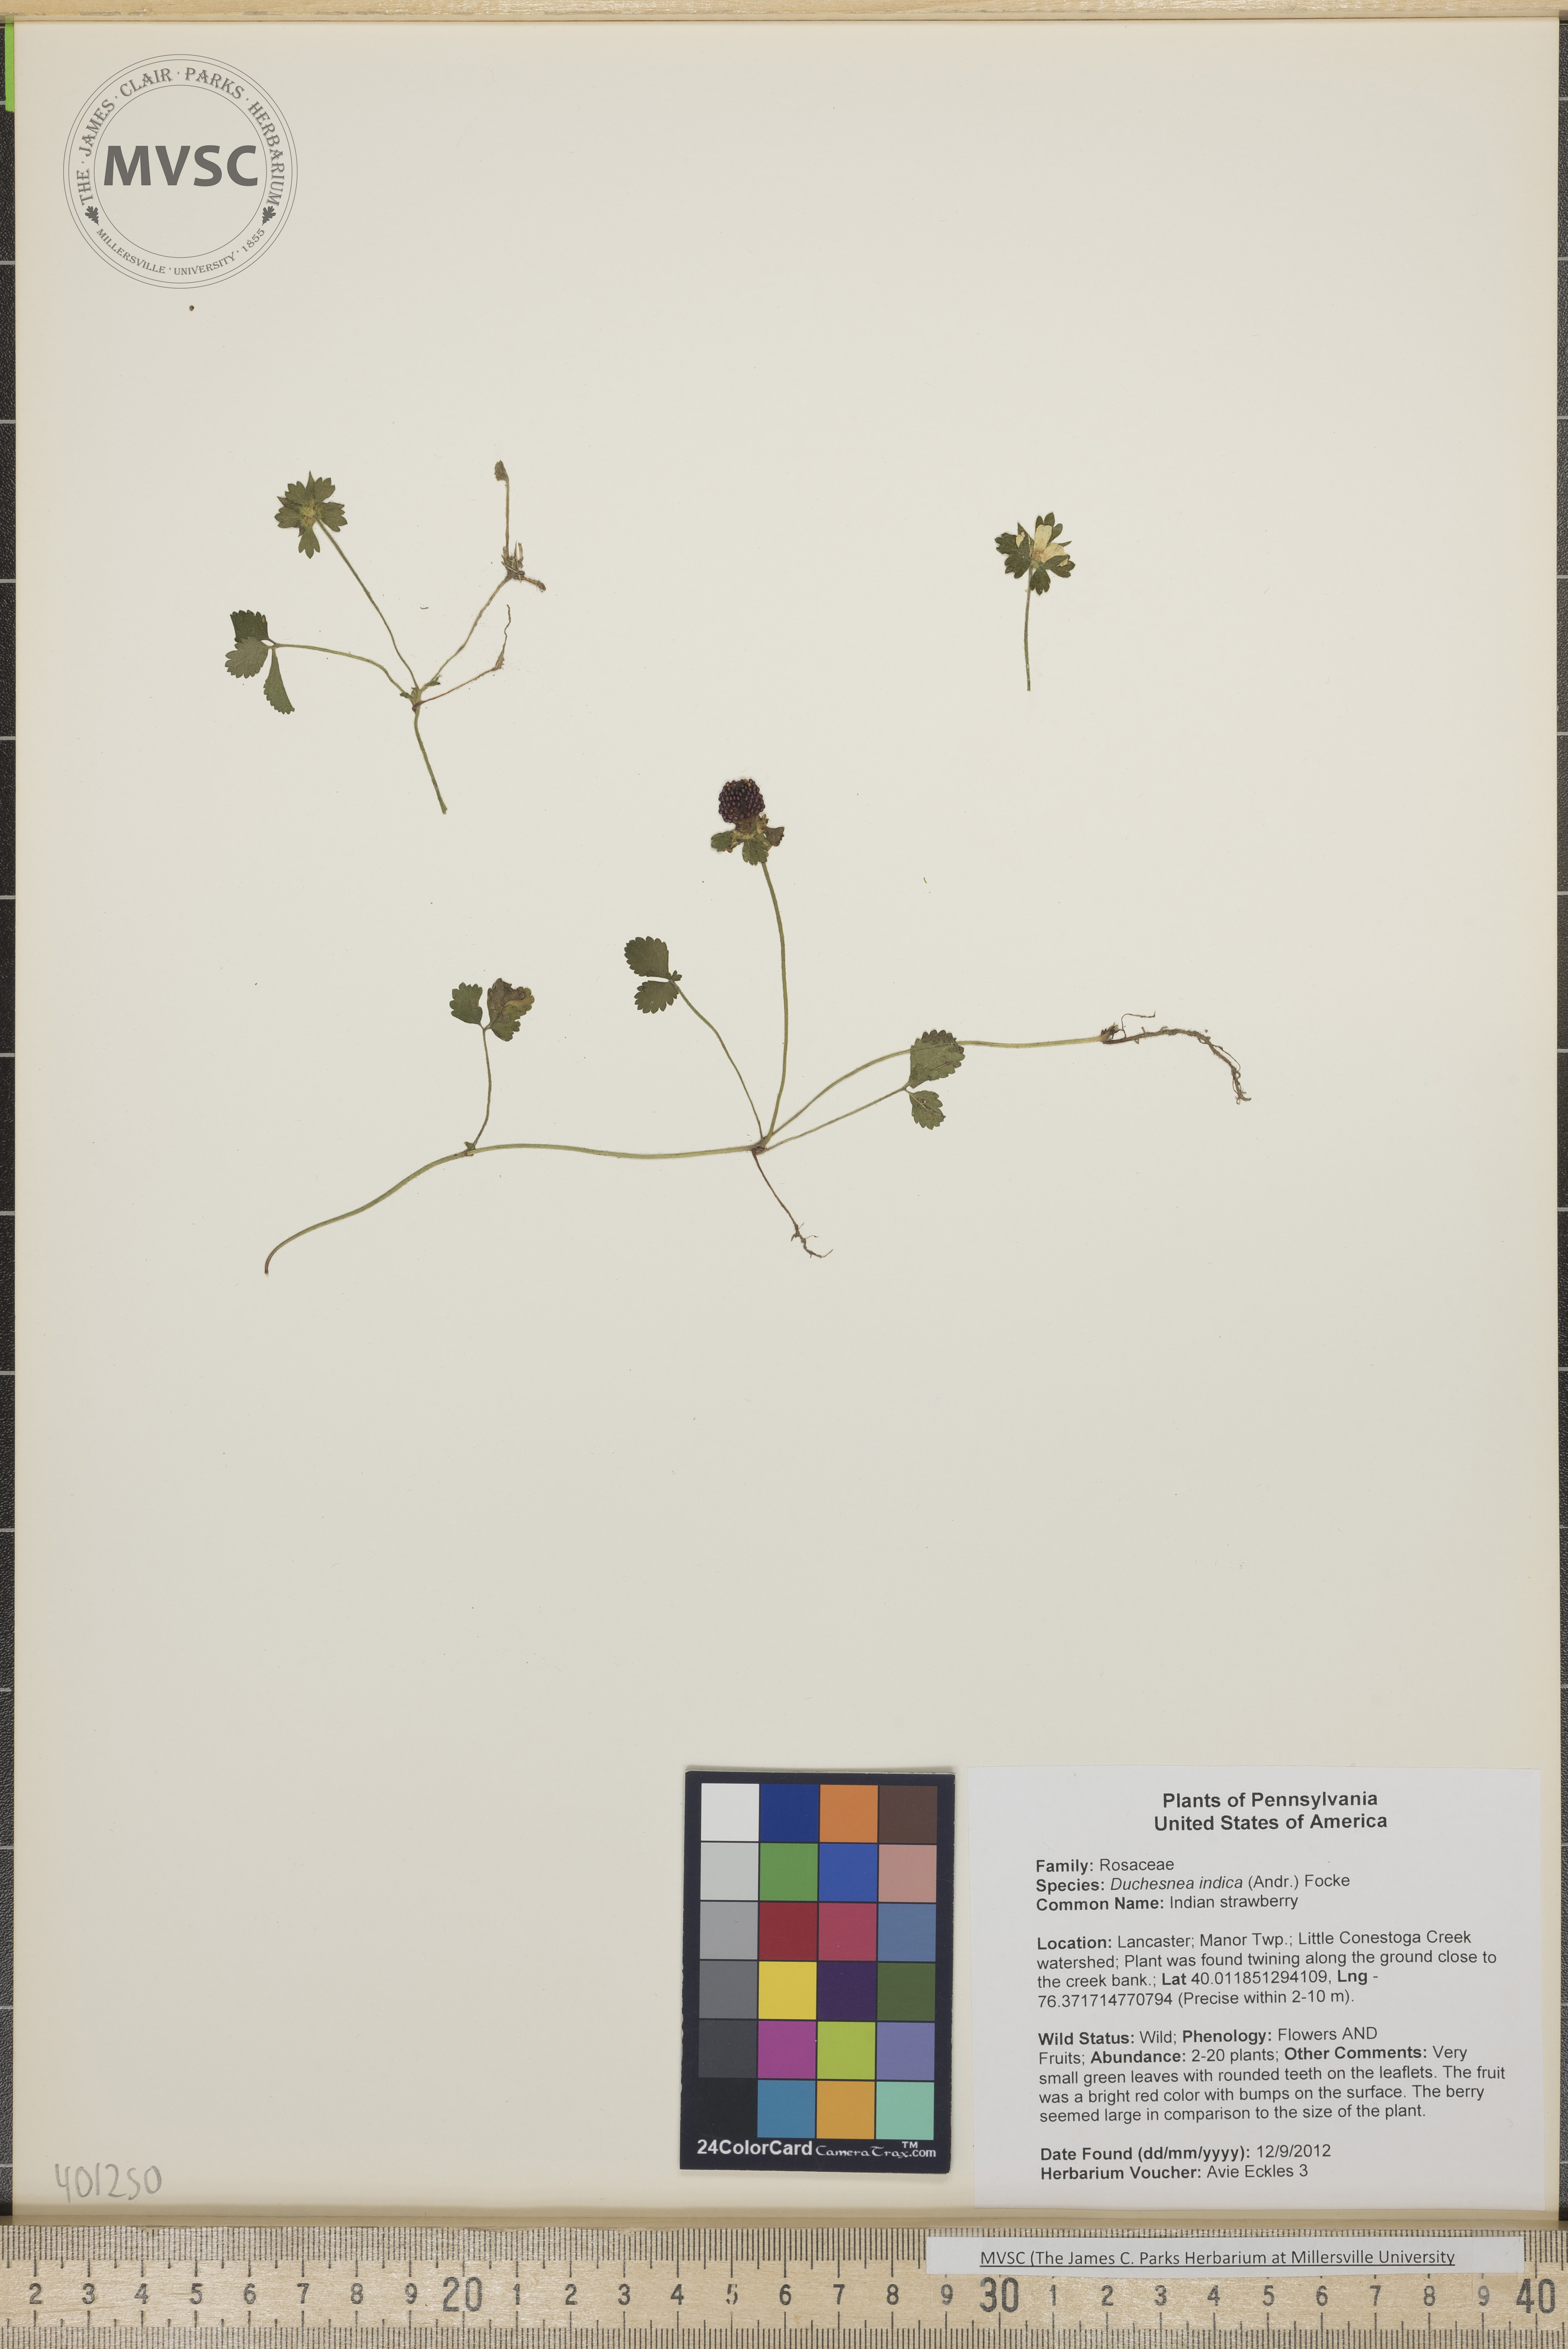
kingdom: Plantae
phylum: Tracheophyta
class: Magnoliopsida
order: Rosales
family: Rosaceae
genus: Potentilla
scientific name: Potentilla indica
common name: Indian strawberry
